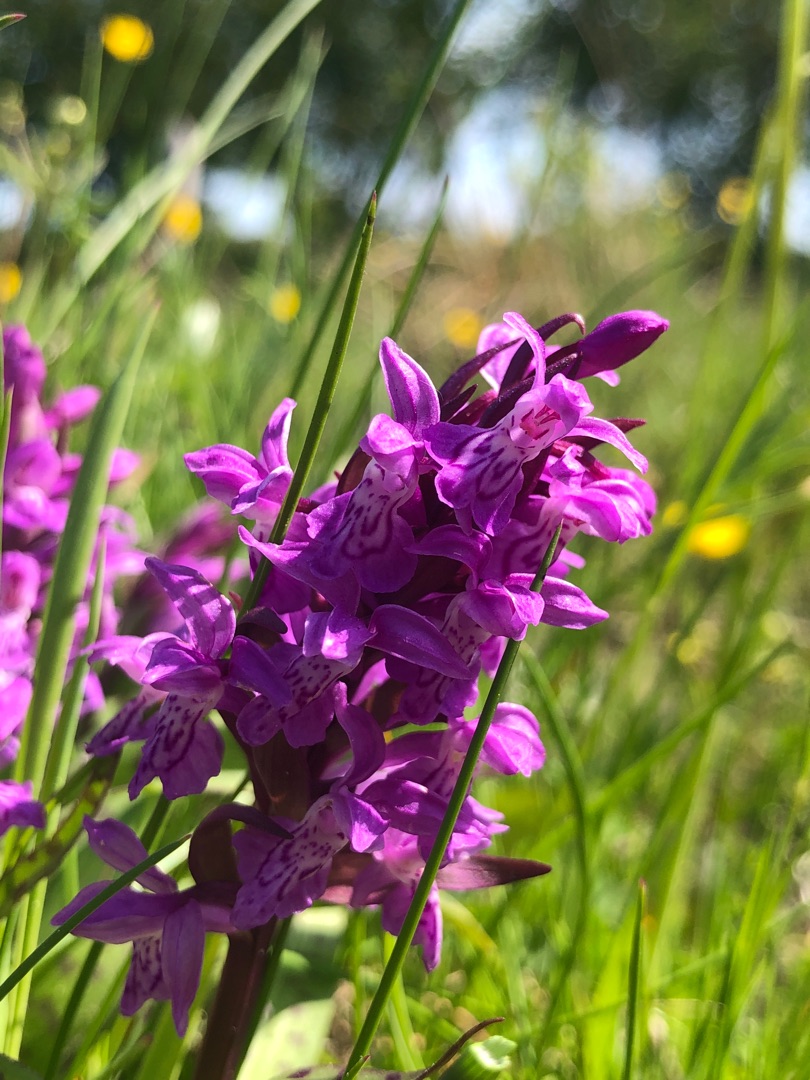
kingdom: Plantae
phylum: Tracheophyta
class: Liliopsida
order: Asparagales
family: Orchidaceae
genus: Dactylorhiza
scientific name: Dactylorhiza majalis
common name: Maj-gøgeurt
